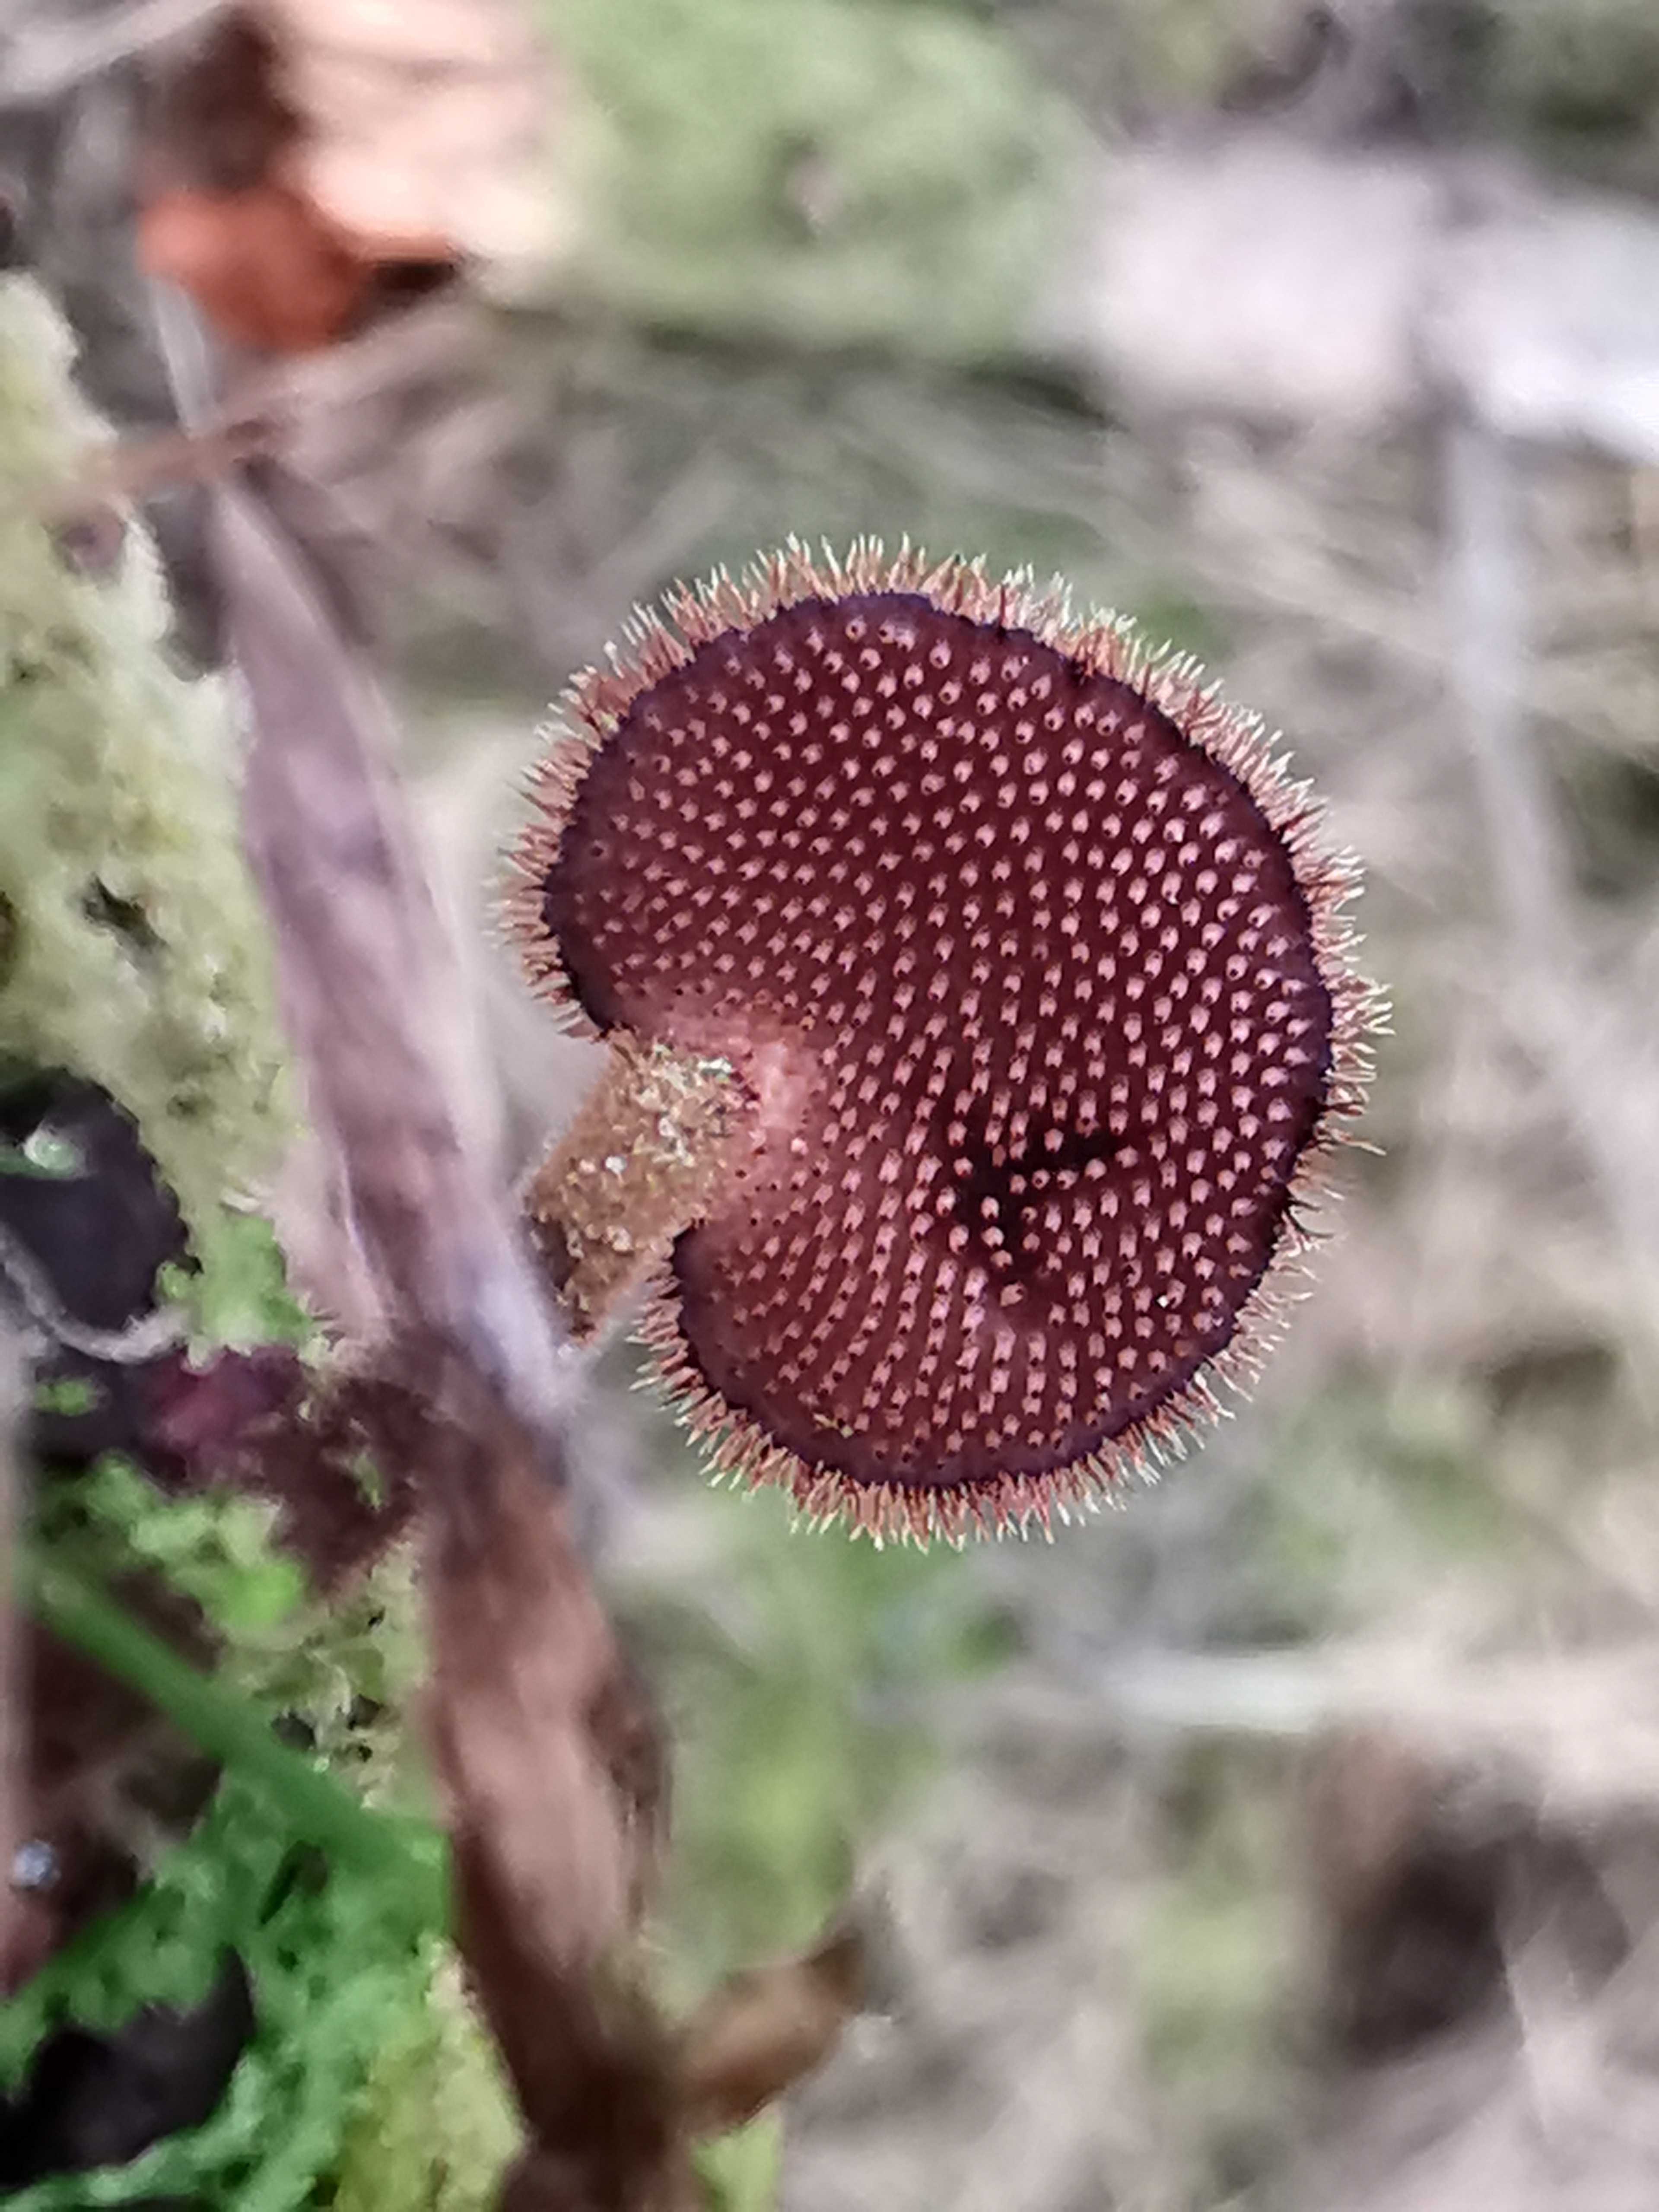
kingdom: Fungi
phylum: Basidiomycota
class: Agaricomycetes
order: Russulales
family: Auriscalpiaceae
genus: Auriscalpium
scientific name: Auriscalpium vulgare
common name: koglepigsvamp
